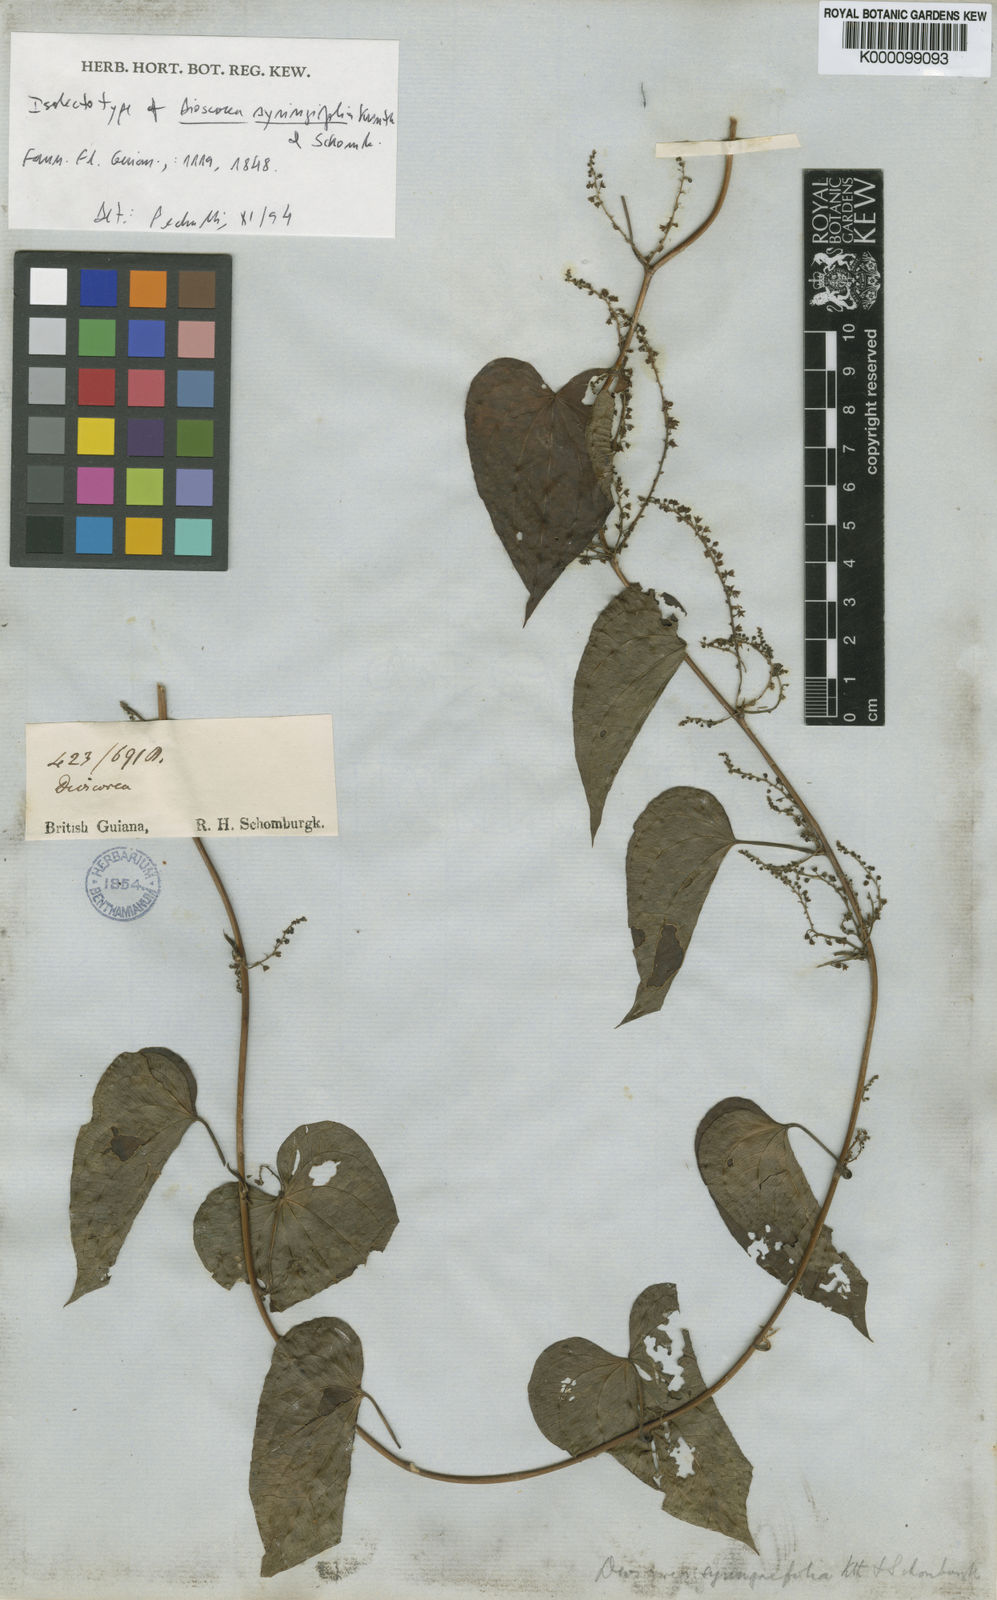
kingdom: Plantae
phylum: Tracheophyta
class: Liliopsida
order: Dioscoreales
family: Dioscoreaceae
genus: Dioscorea
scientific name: Dioscorea
